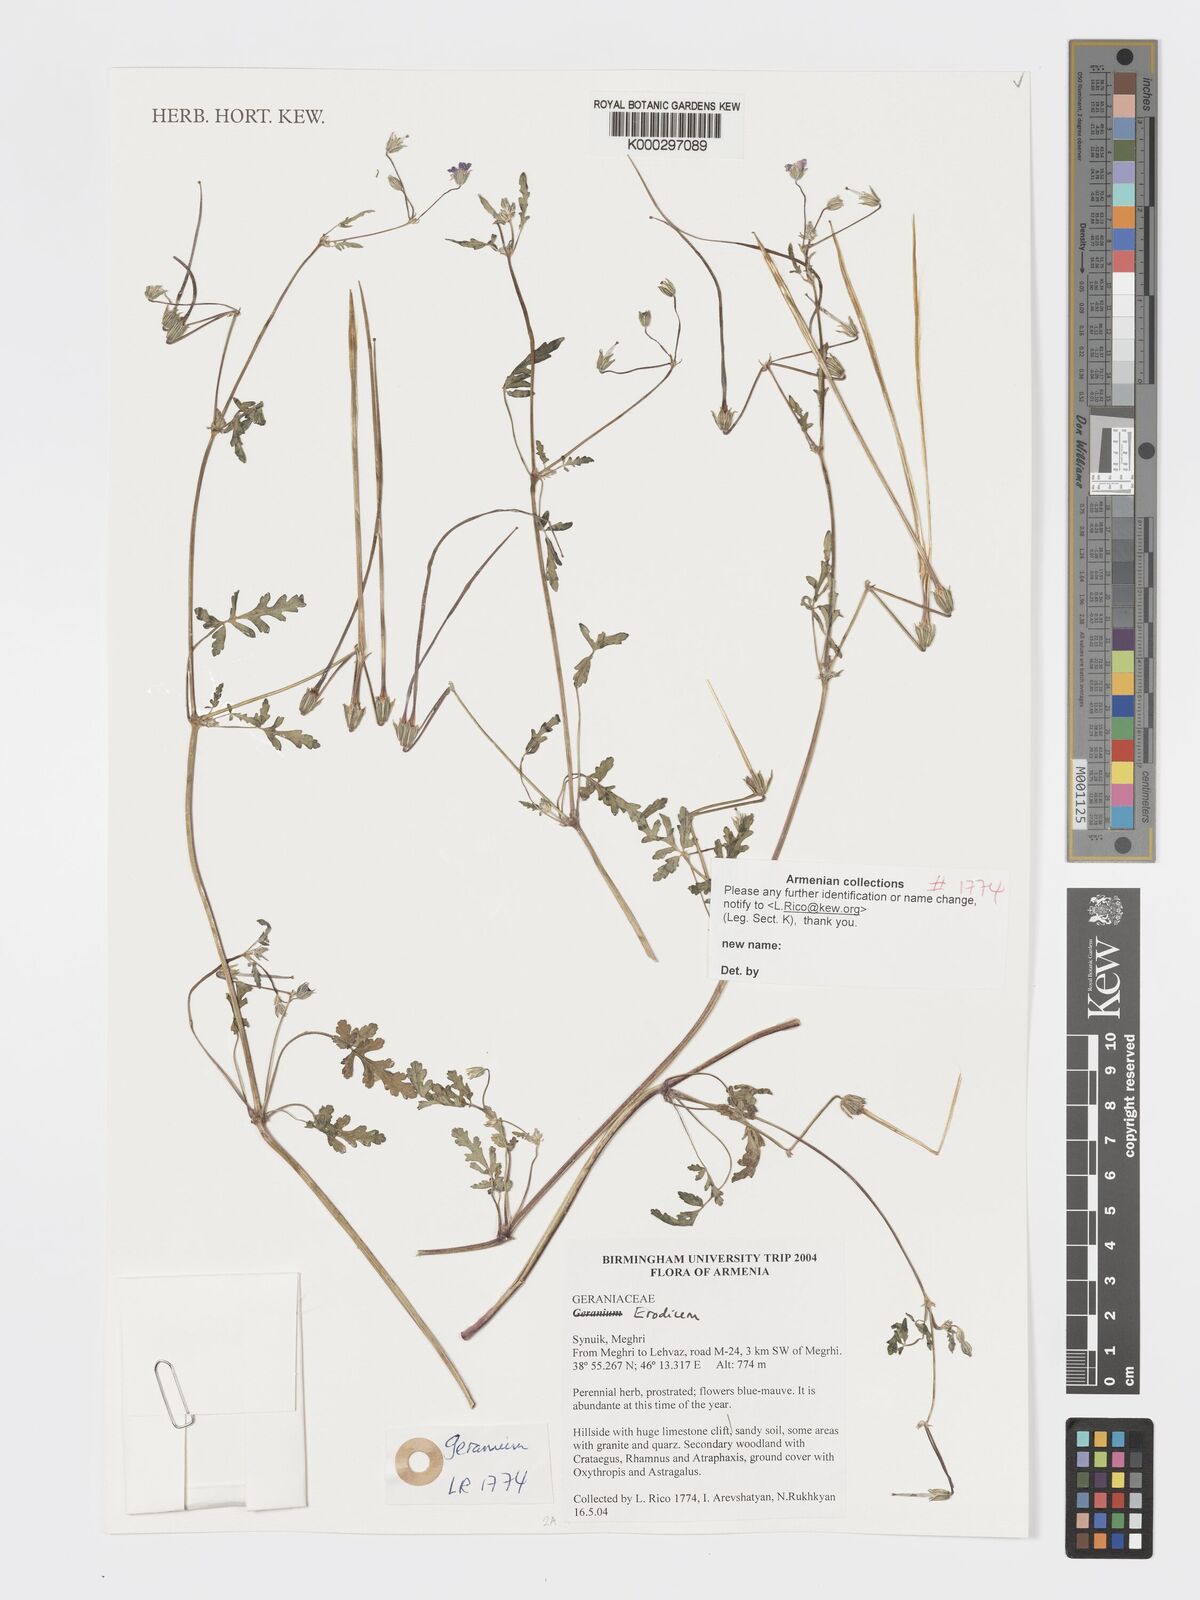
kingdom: Plantae
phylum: Tracheophyta
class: Magnoliopsida
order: Geraniales
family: Geraniaceae
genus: Geranium
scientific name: Geranium
